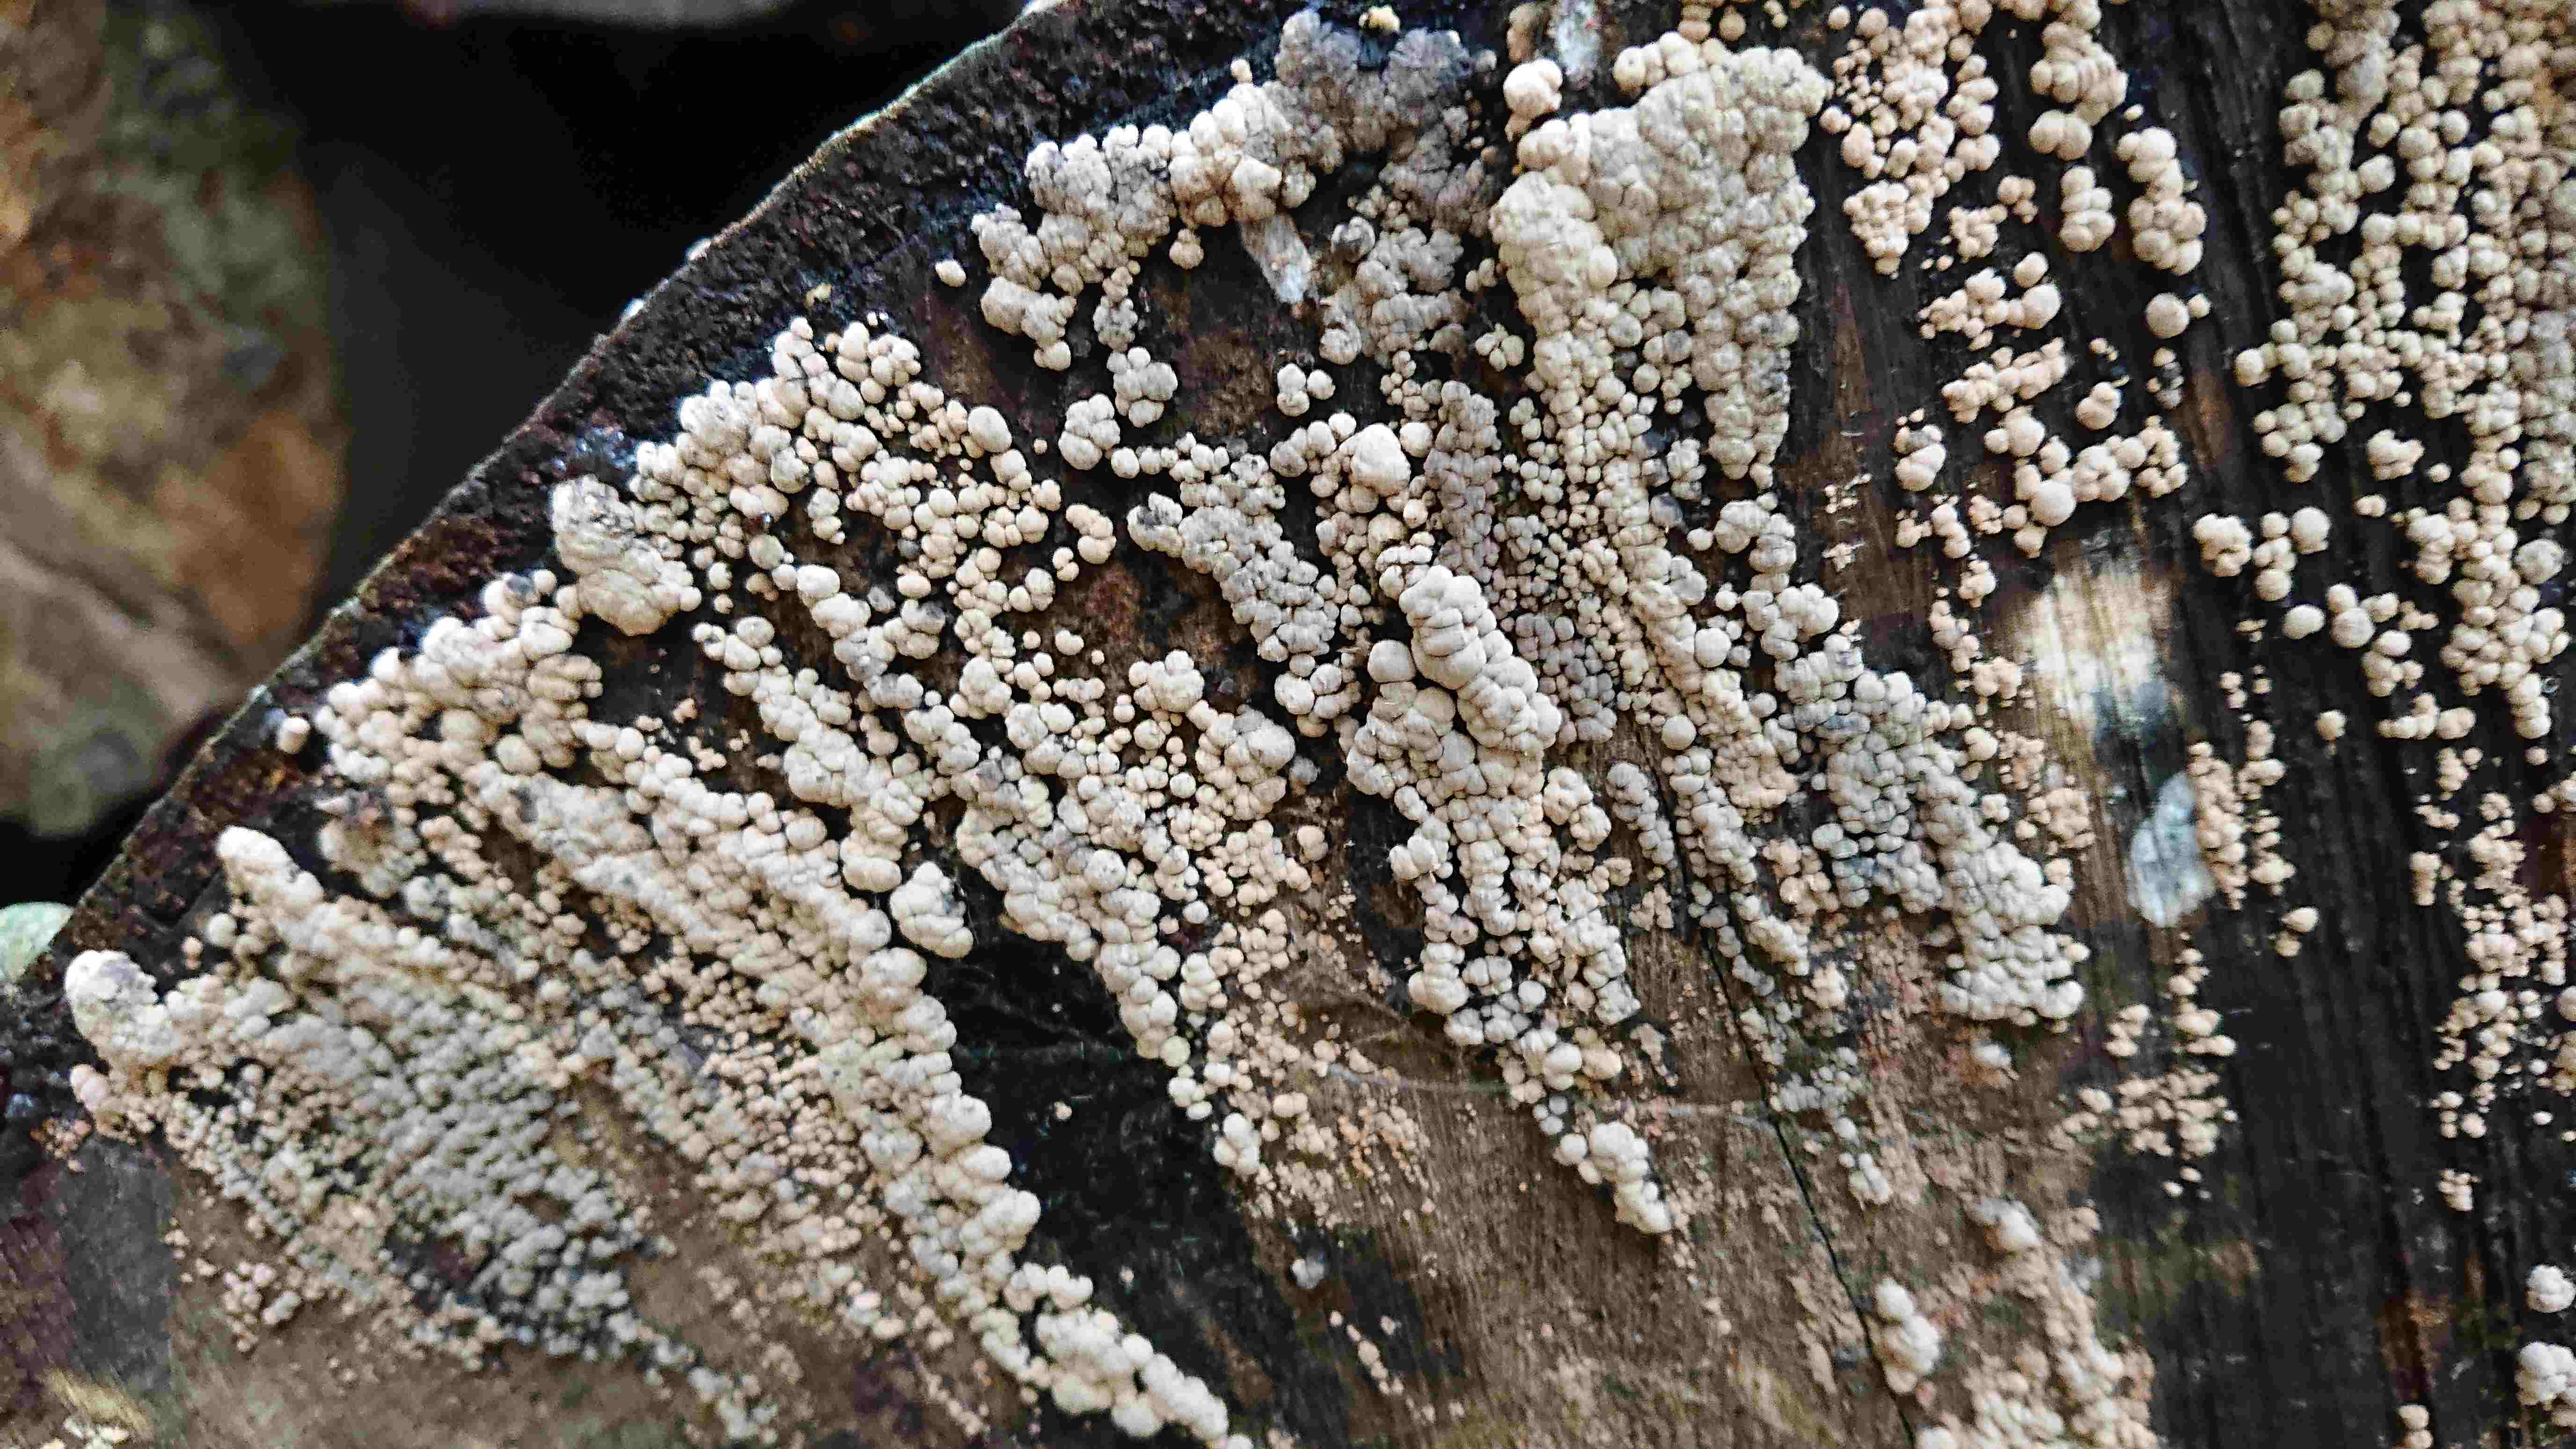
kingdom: Fungi
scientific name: Fungi
